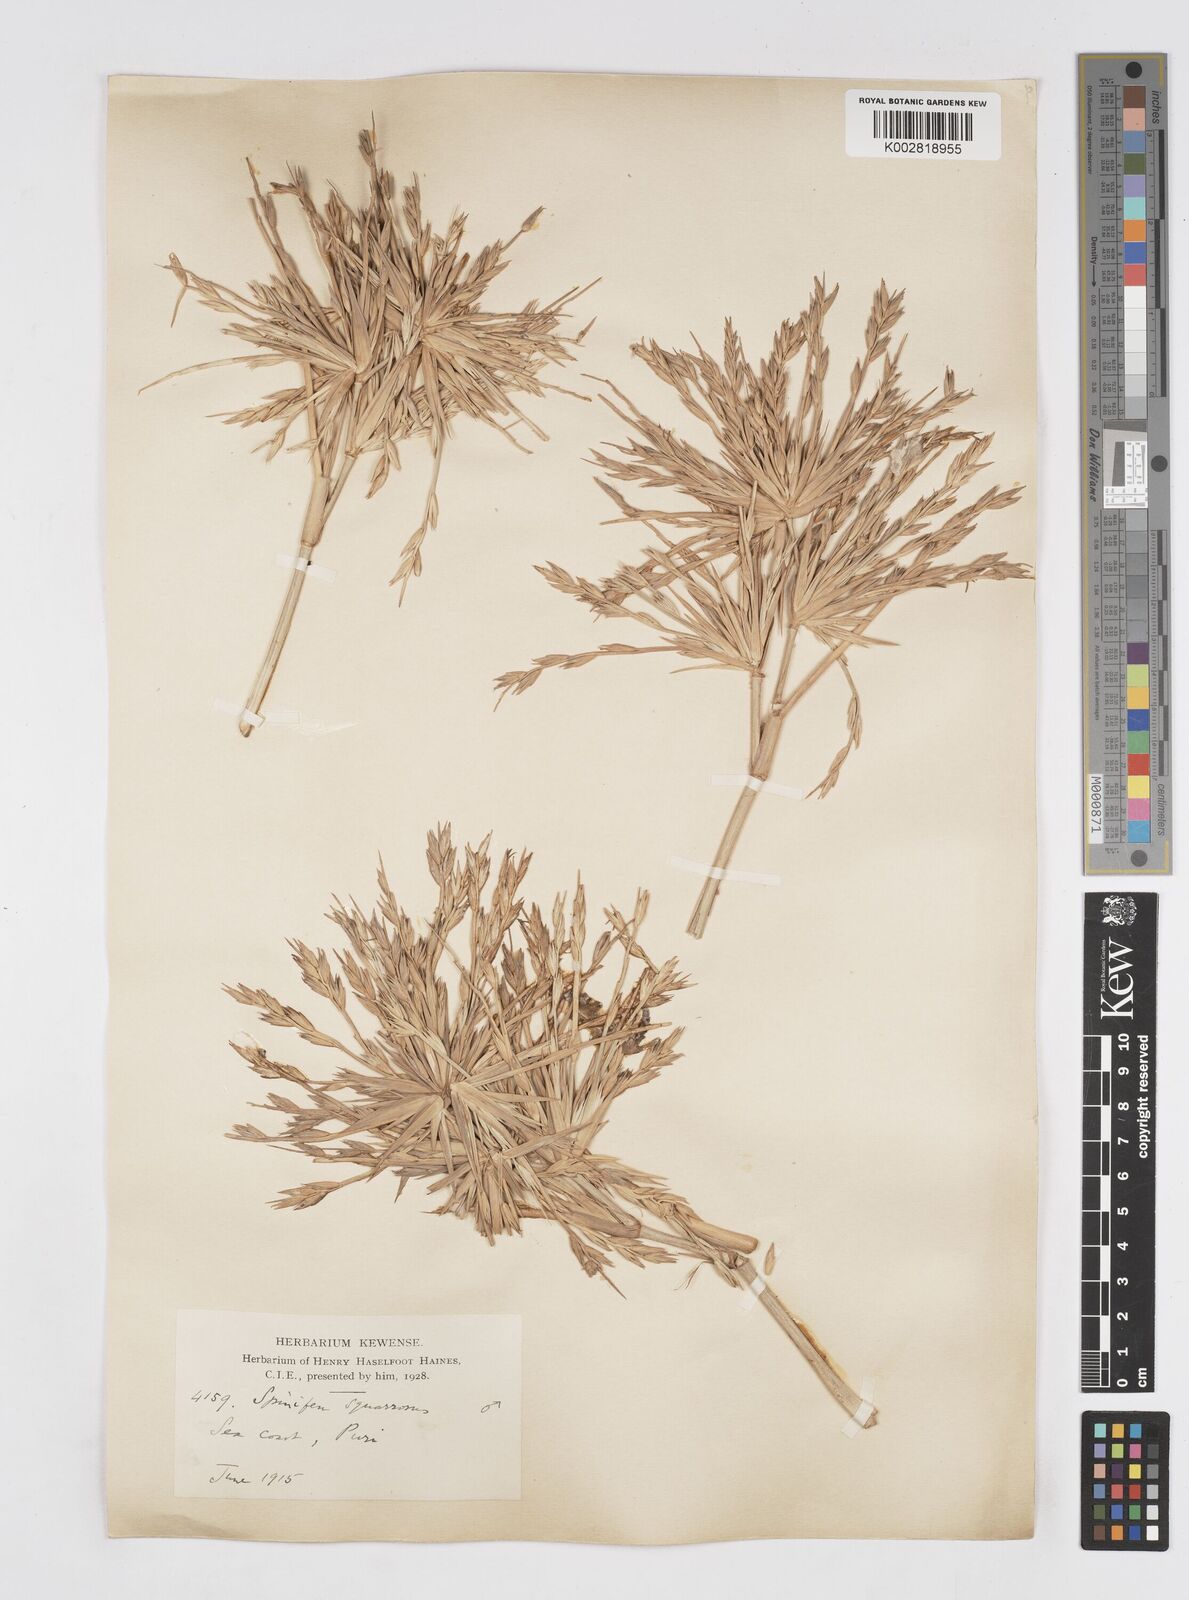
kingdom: Plantae
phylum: Tracheophyta
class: Liliopsida
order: Poales
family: Poaceae
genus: Spinifex
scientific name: Spinifex littoreus
